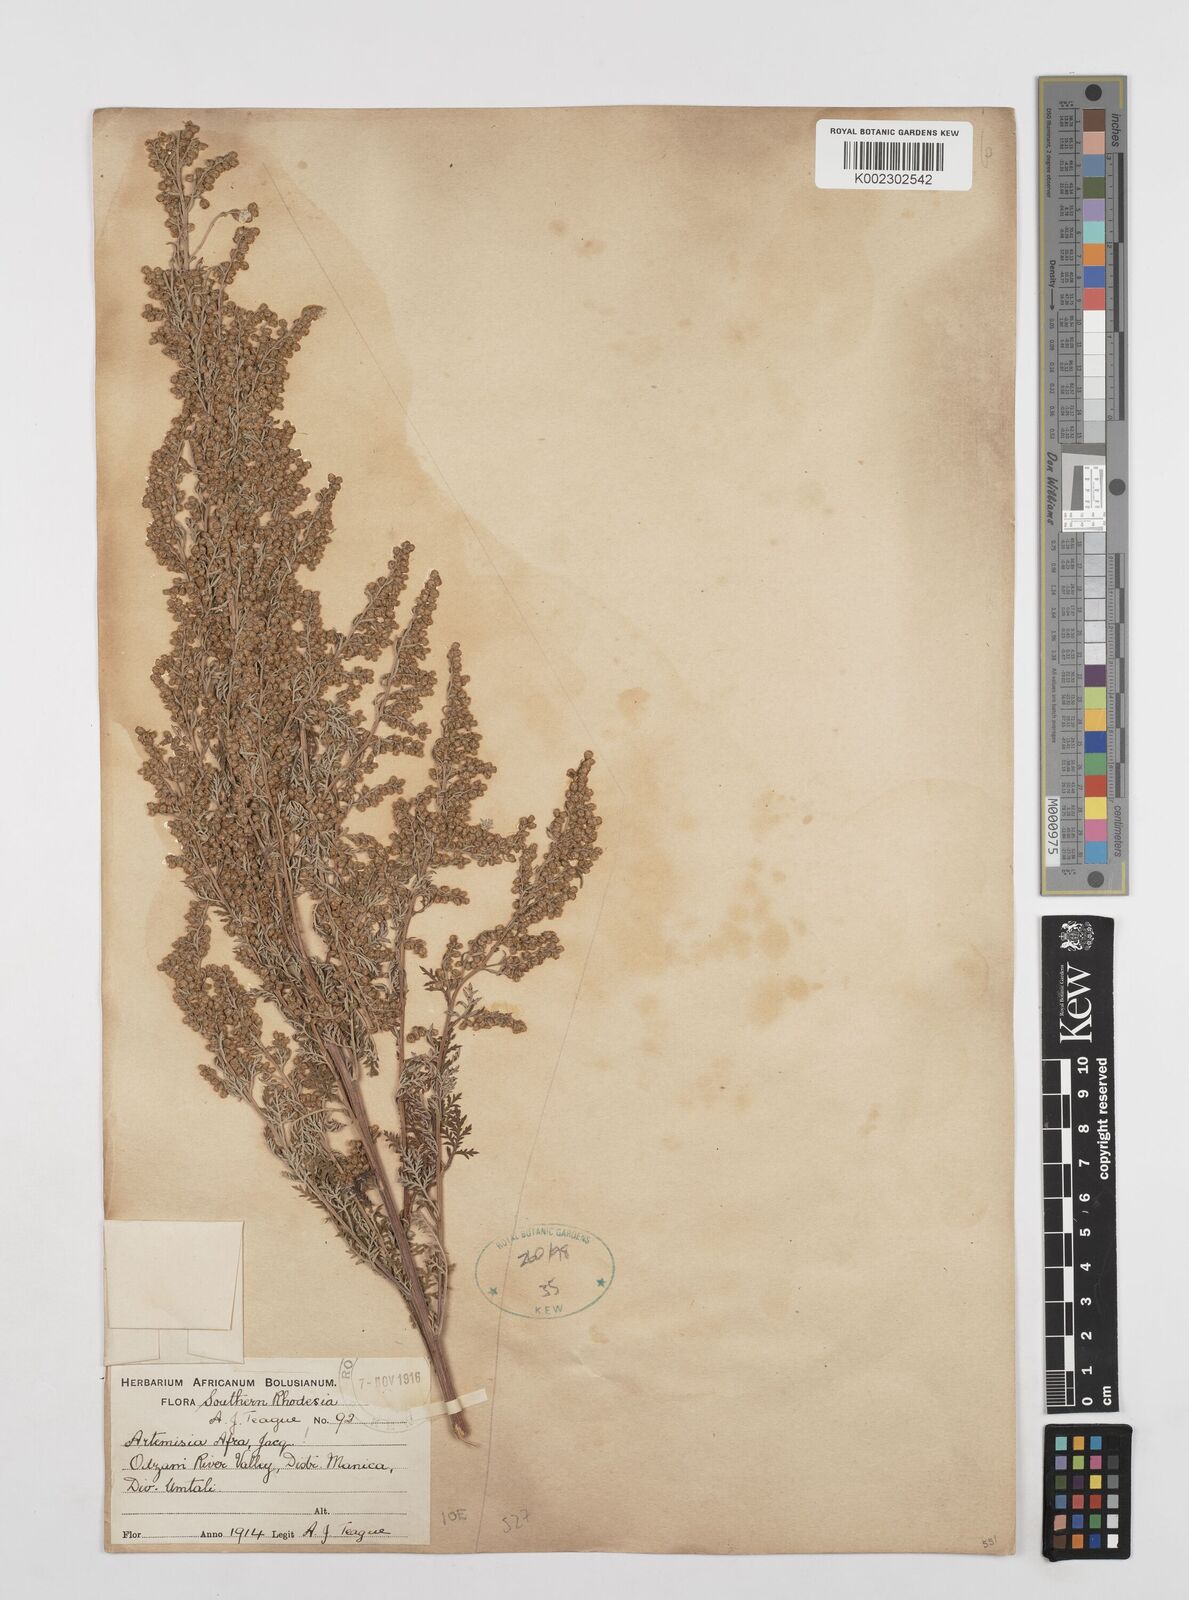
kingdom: Plantae
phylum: Tracheophyta
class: Magnoliopsida
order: Asterales
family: Asteraceae
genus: Artemisia
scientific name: Artemisia afra
